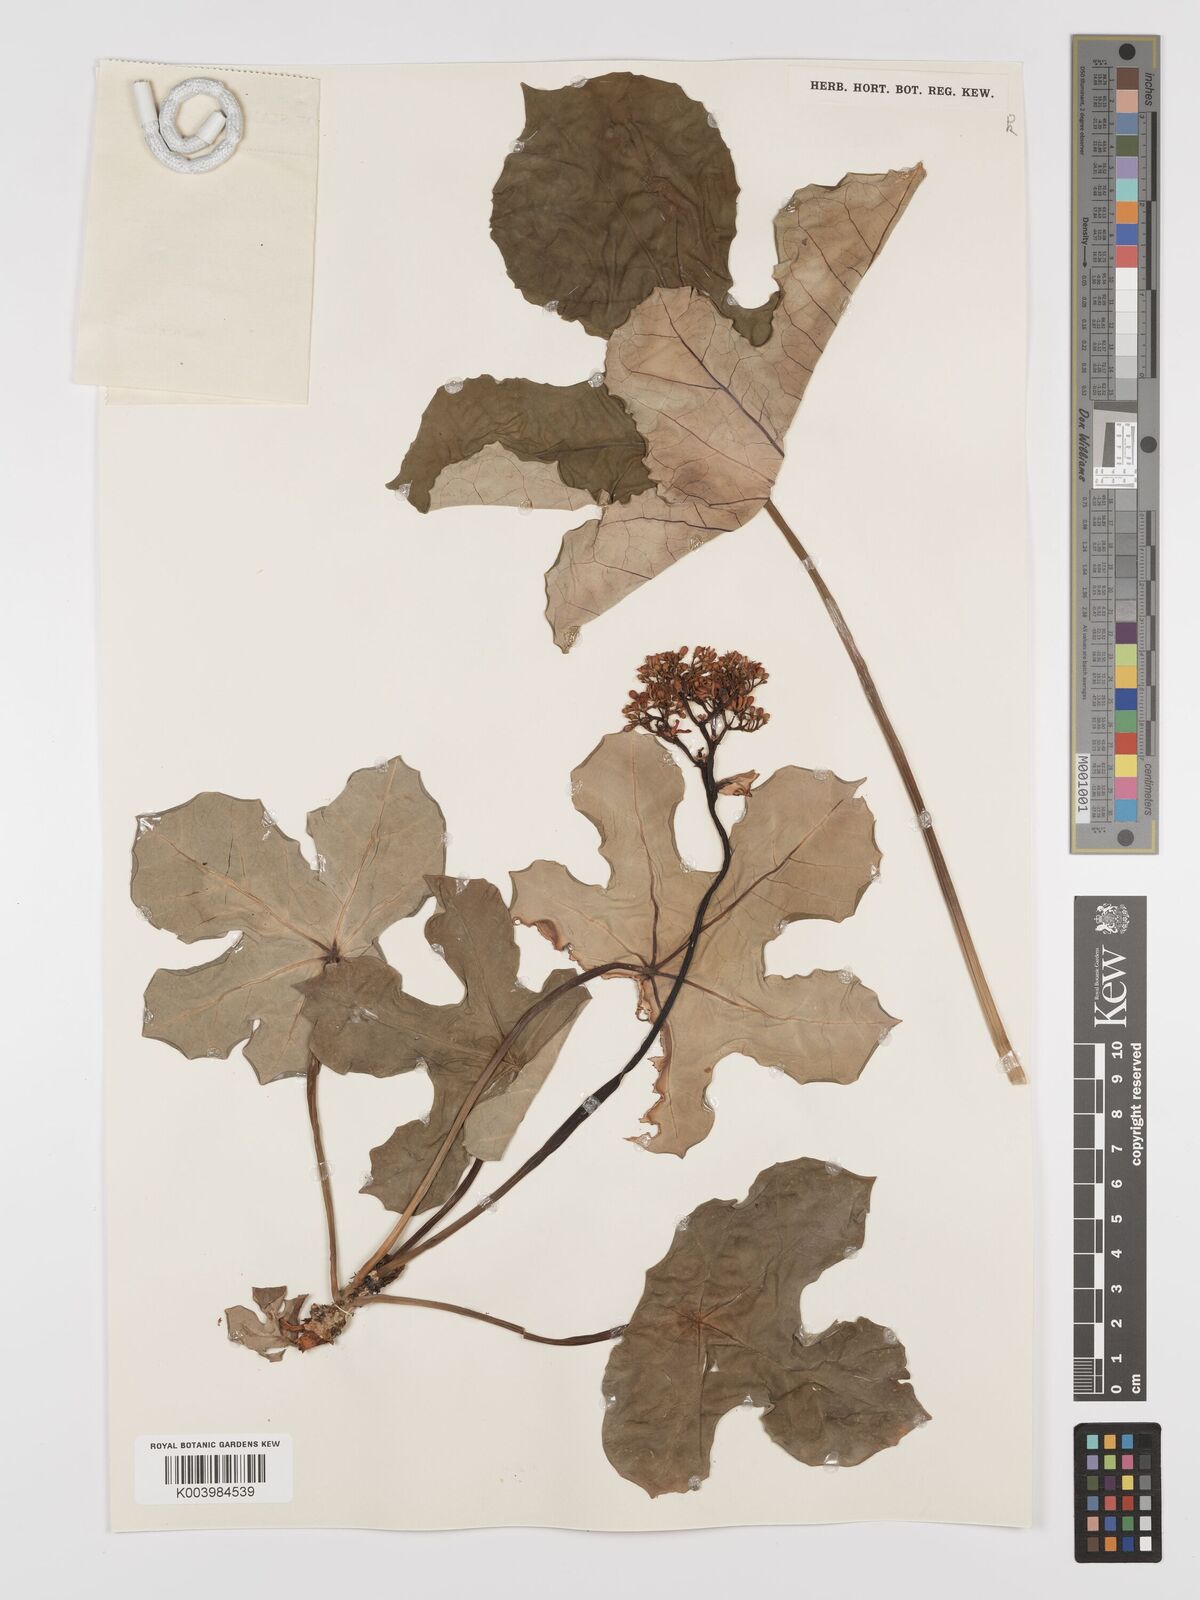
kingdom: Plantae
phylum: Tracheophyta
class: Magnoliopsida
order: Malpighiales
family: Euphorbiaceae
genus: Jatropha
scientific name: Jatropha podagrica
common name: Gout stalk
